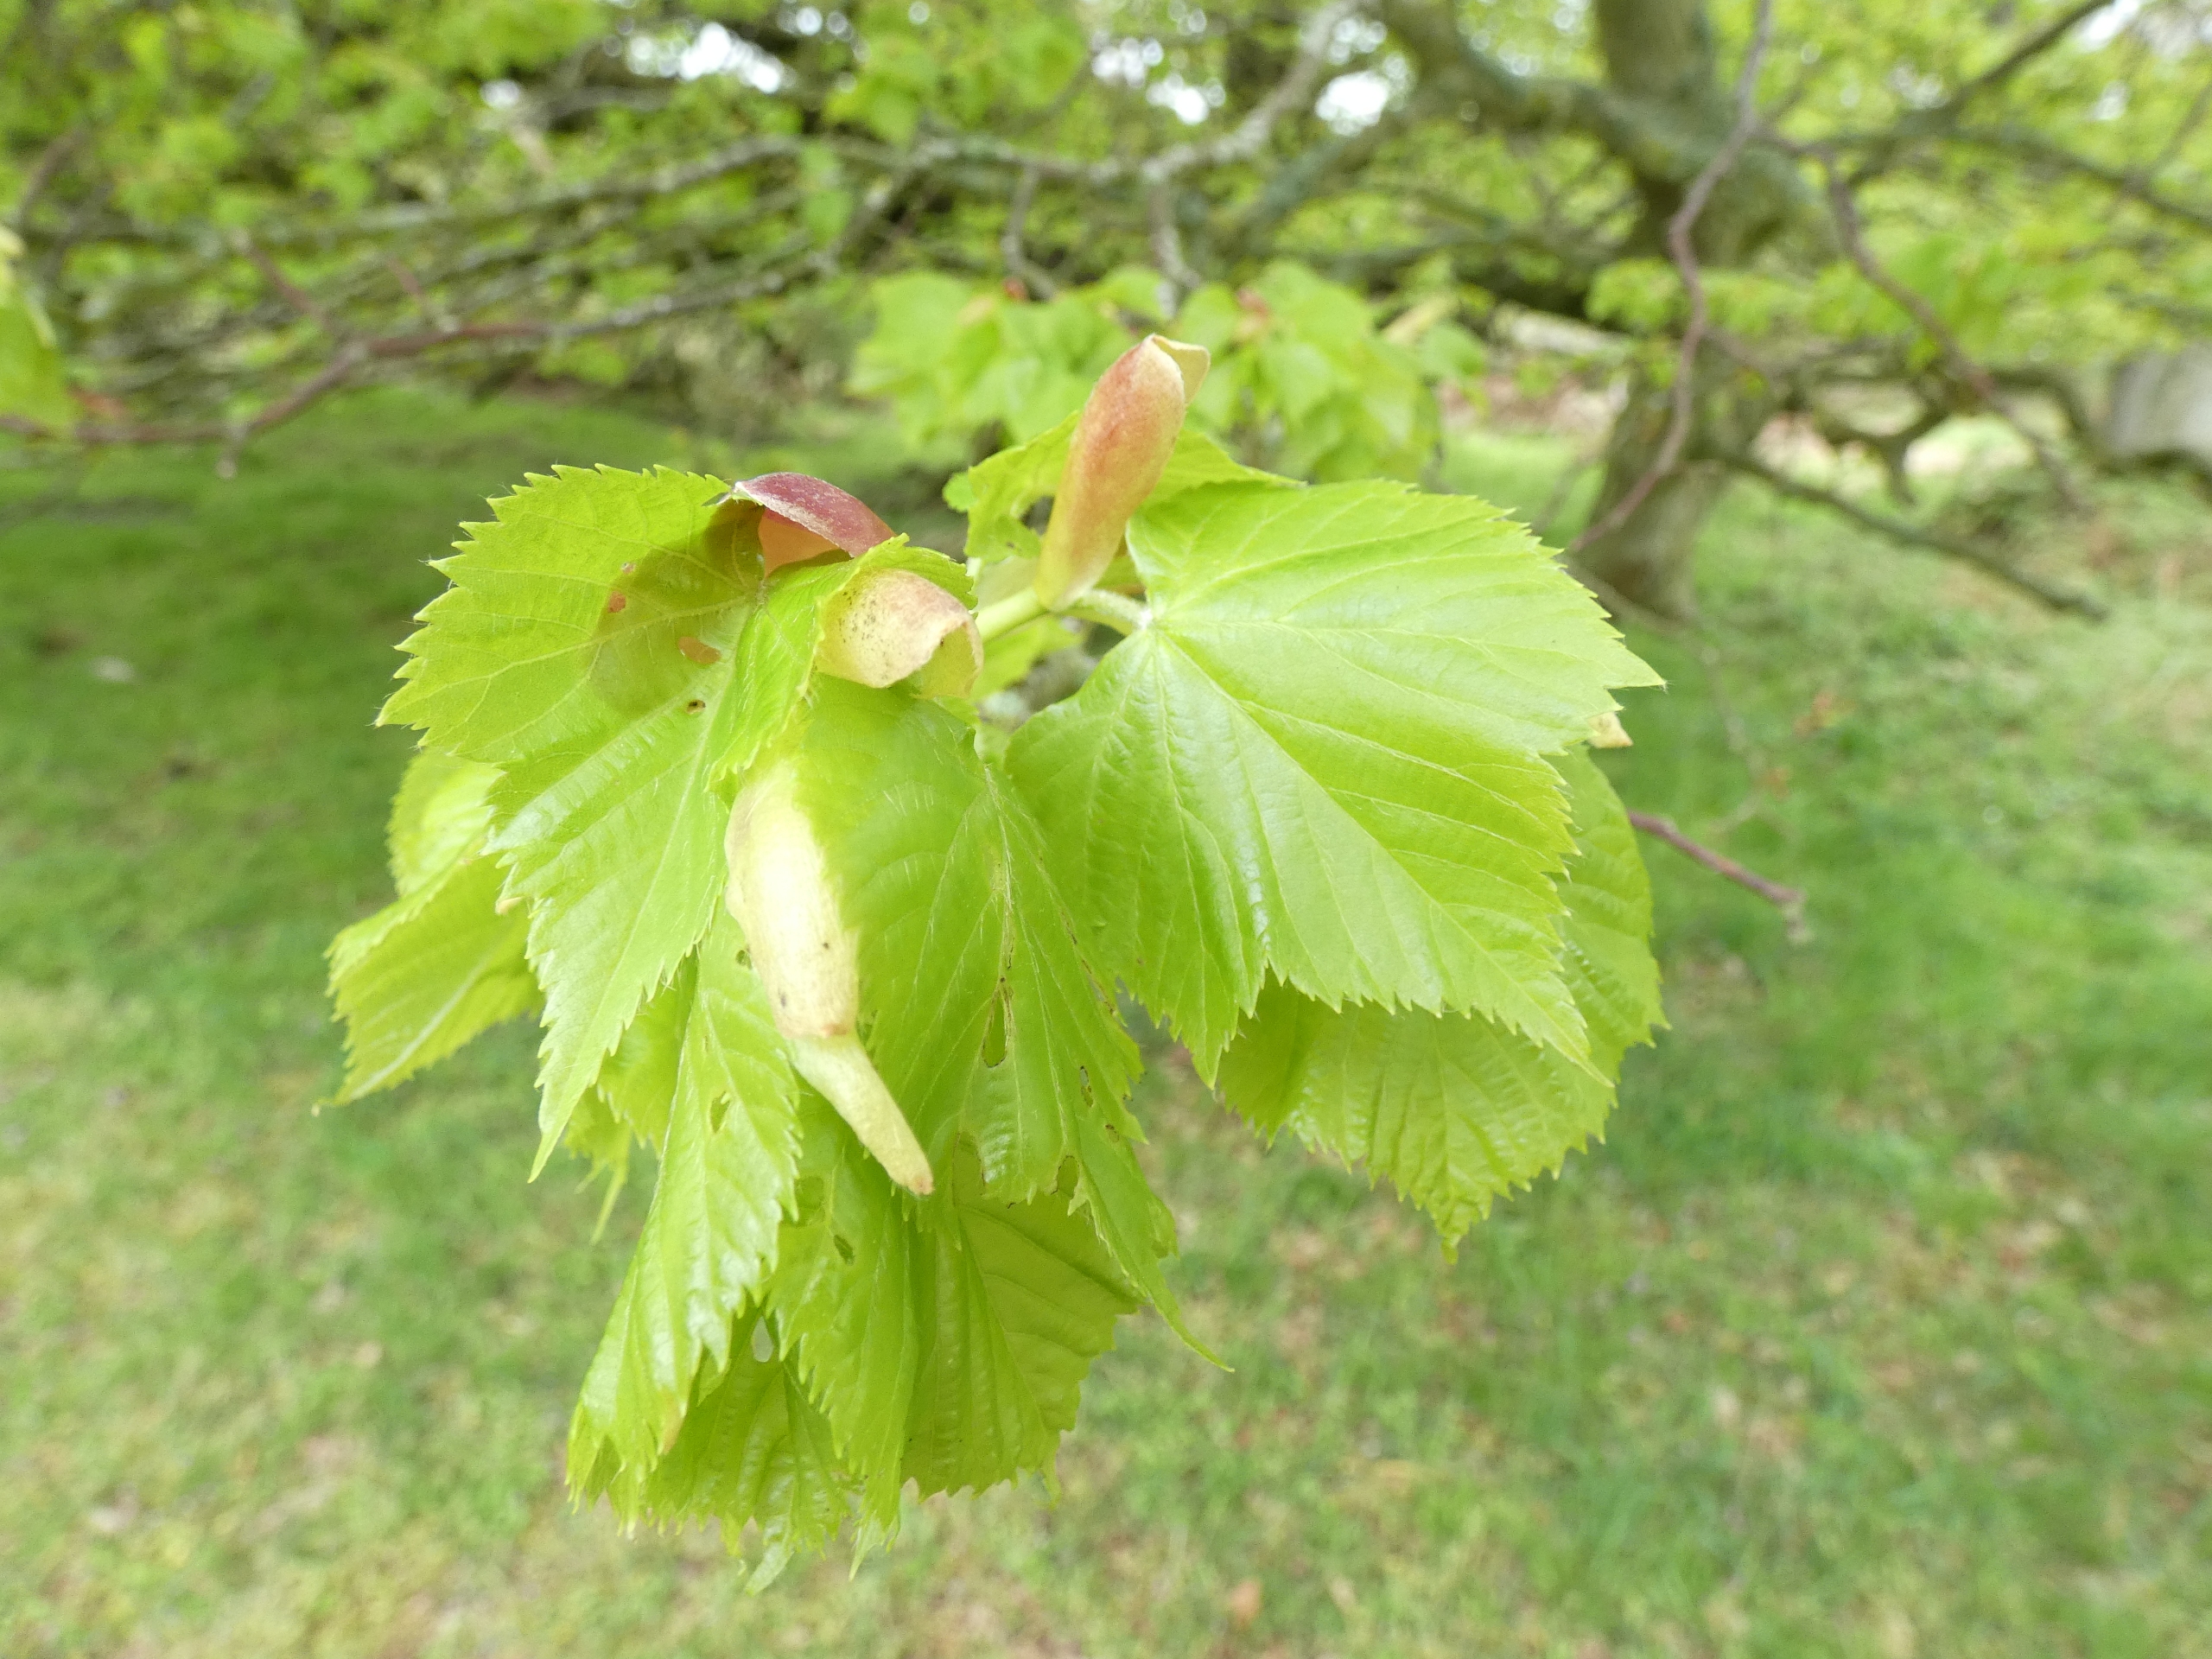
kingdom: Plantae
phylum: Tracheophyta
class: Magnoliopsida
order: Malvales
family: Malvaceae
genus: Tilia
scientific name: Tilia platyphyllos
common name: Storbladet lind
